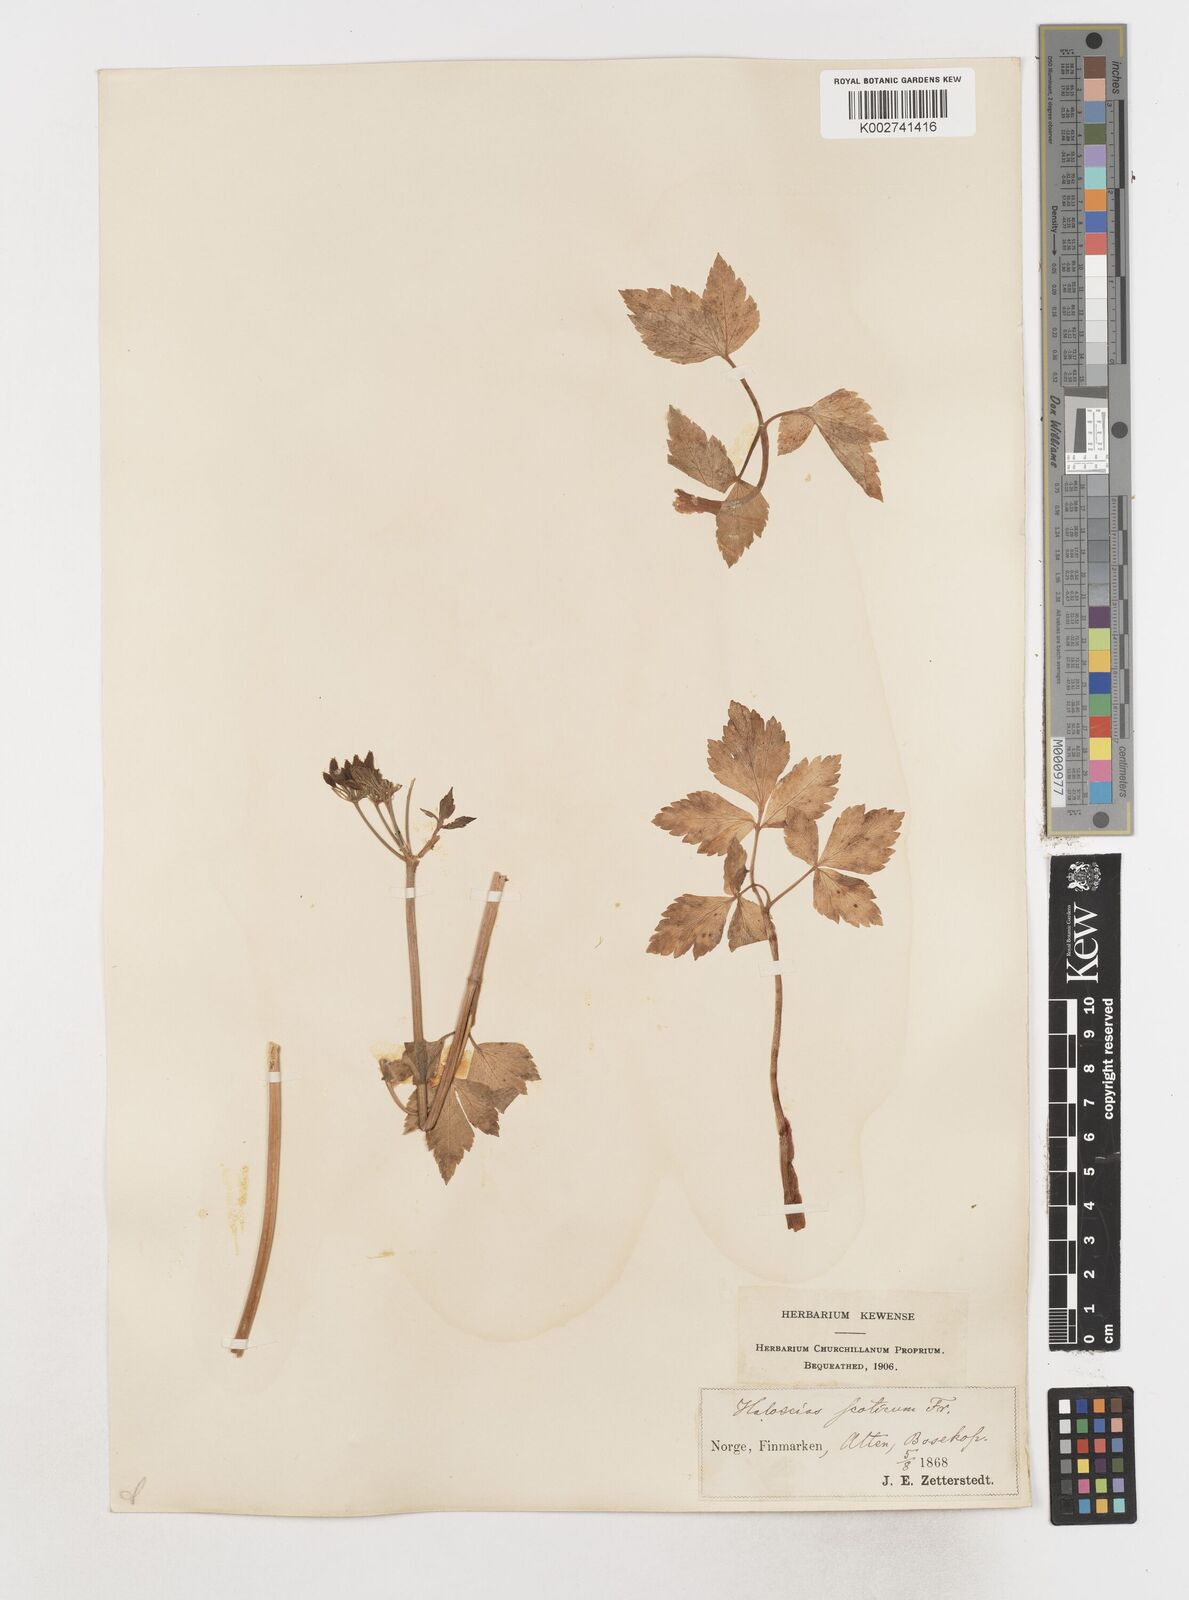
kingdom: Plantae
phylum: Tracheophyta
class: Magnoliopsida
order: Apiales
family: Apiaceae
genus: Ligusticum
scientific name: Ligusticum scothicum
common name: Beach lovage
